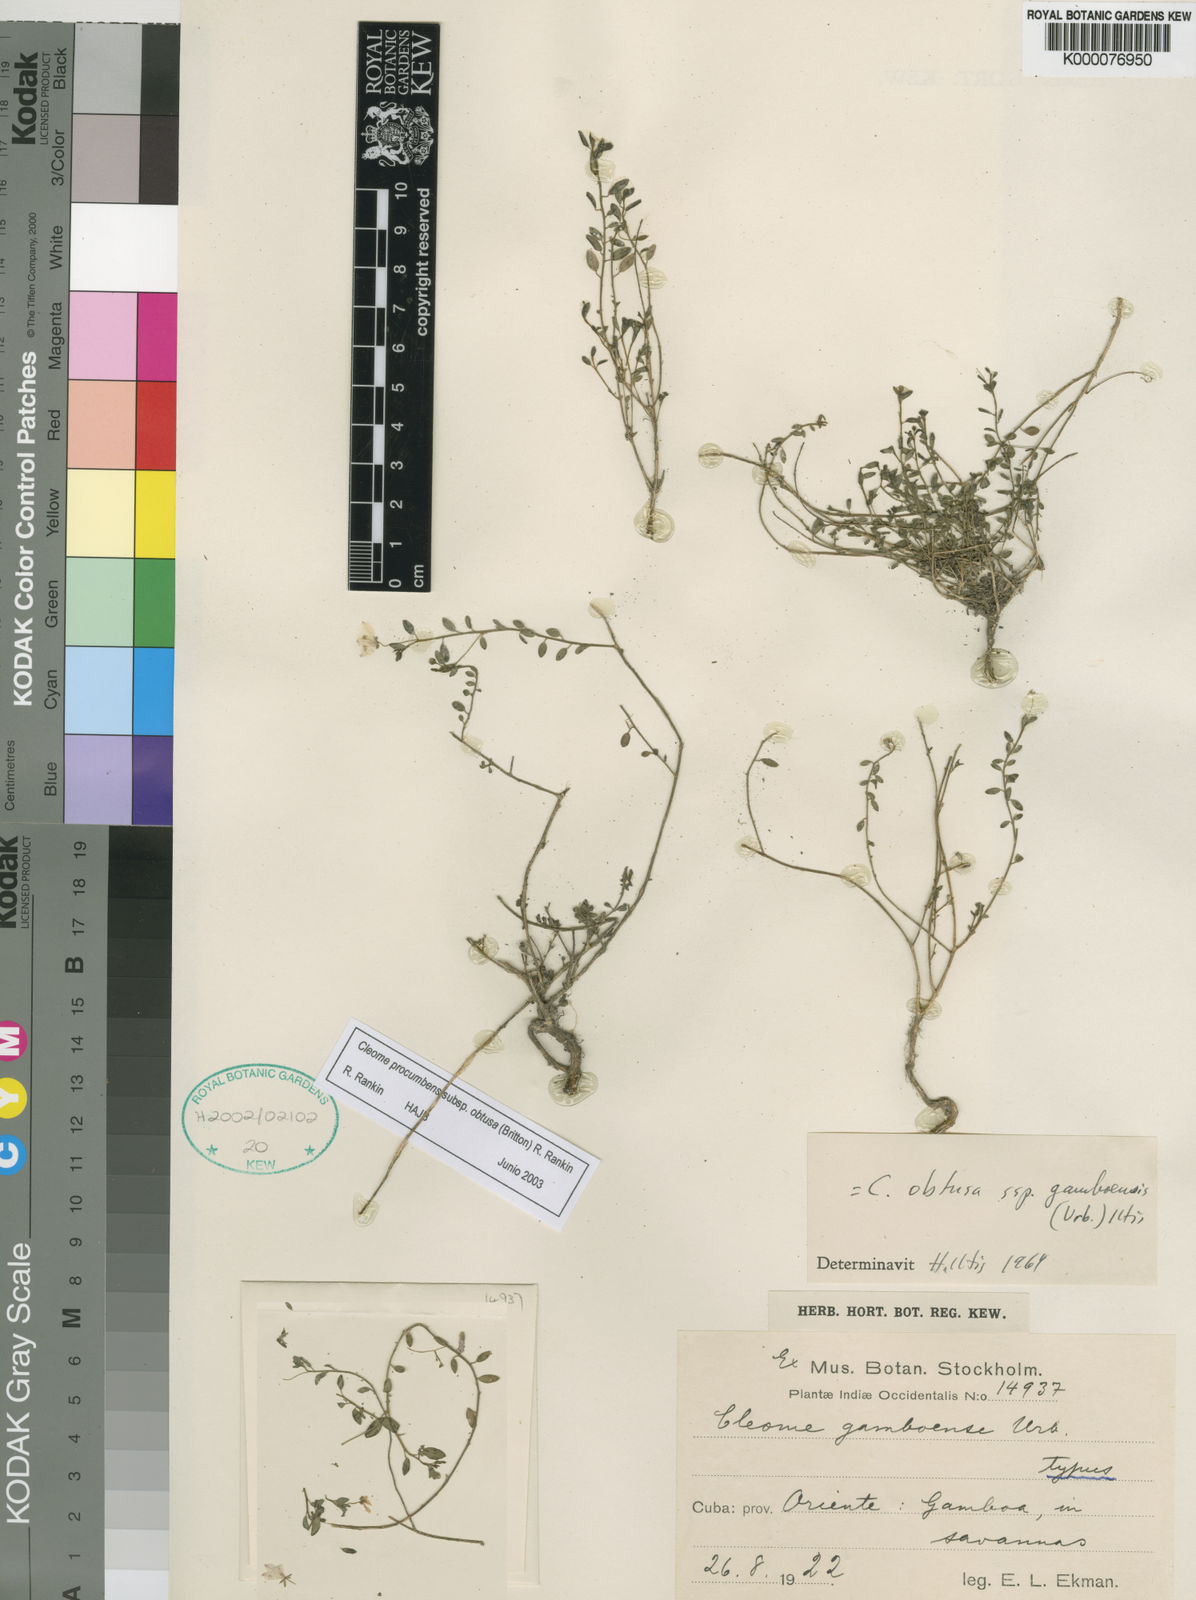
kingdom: Plantae
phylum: Tracheophyta
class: Magnoliopsida
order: Brassicales
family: Cleomaceae
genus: Physostemon
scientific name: Physostemon procumbens
